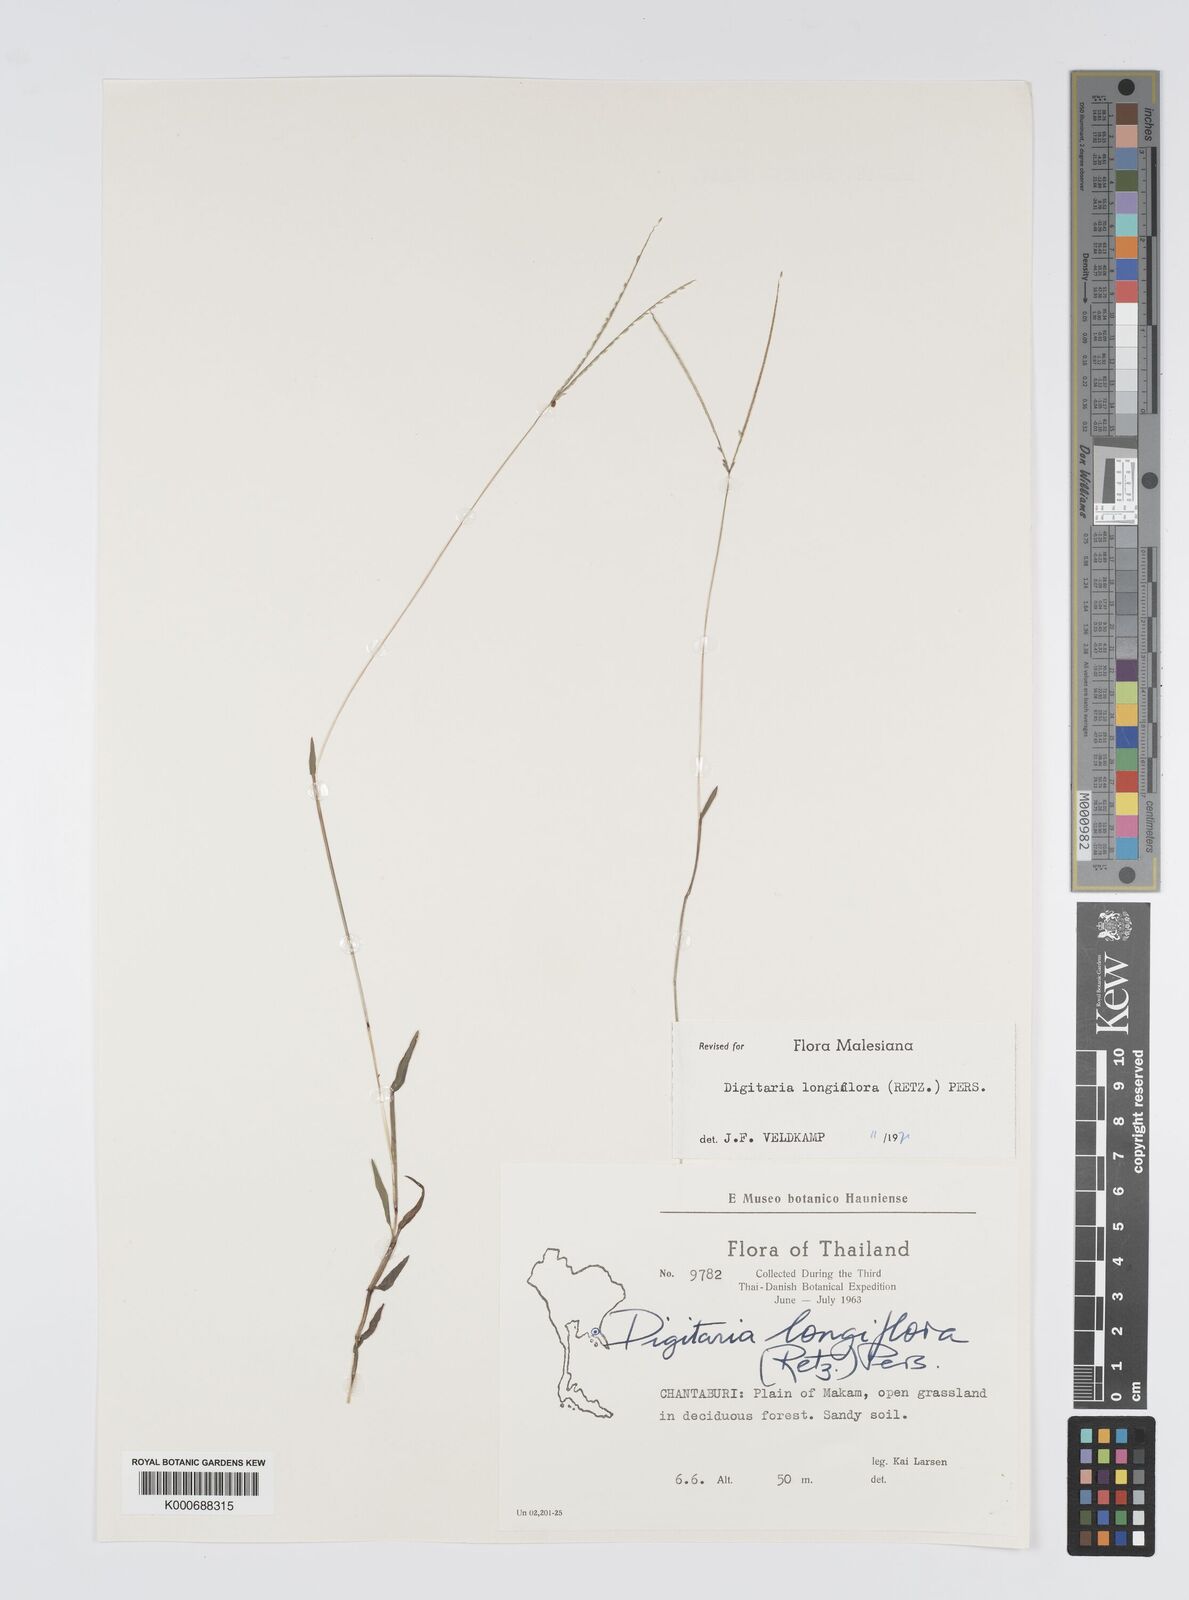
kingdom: Plantae
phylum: Tracheophyta
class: Liliopsida
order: Poales
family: Poaceae
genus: Digitaria
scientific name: Digitaria longiflora
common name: Wire crabgrass
